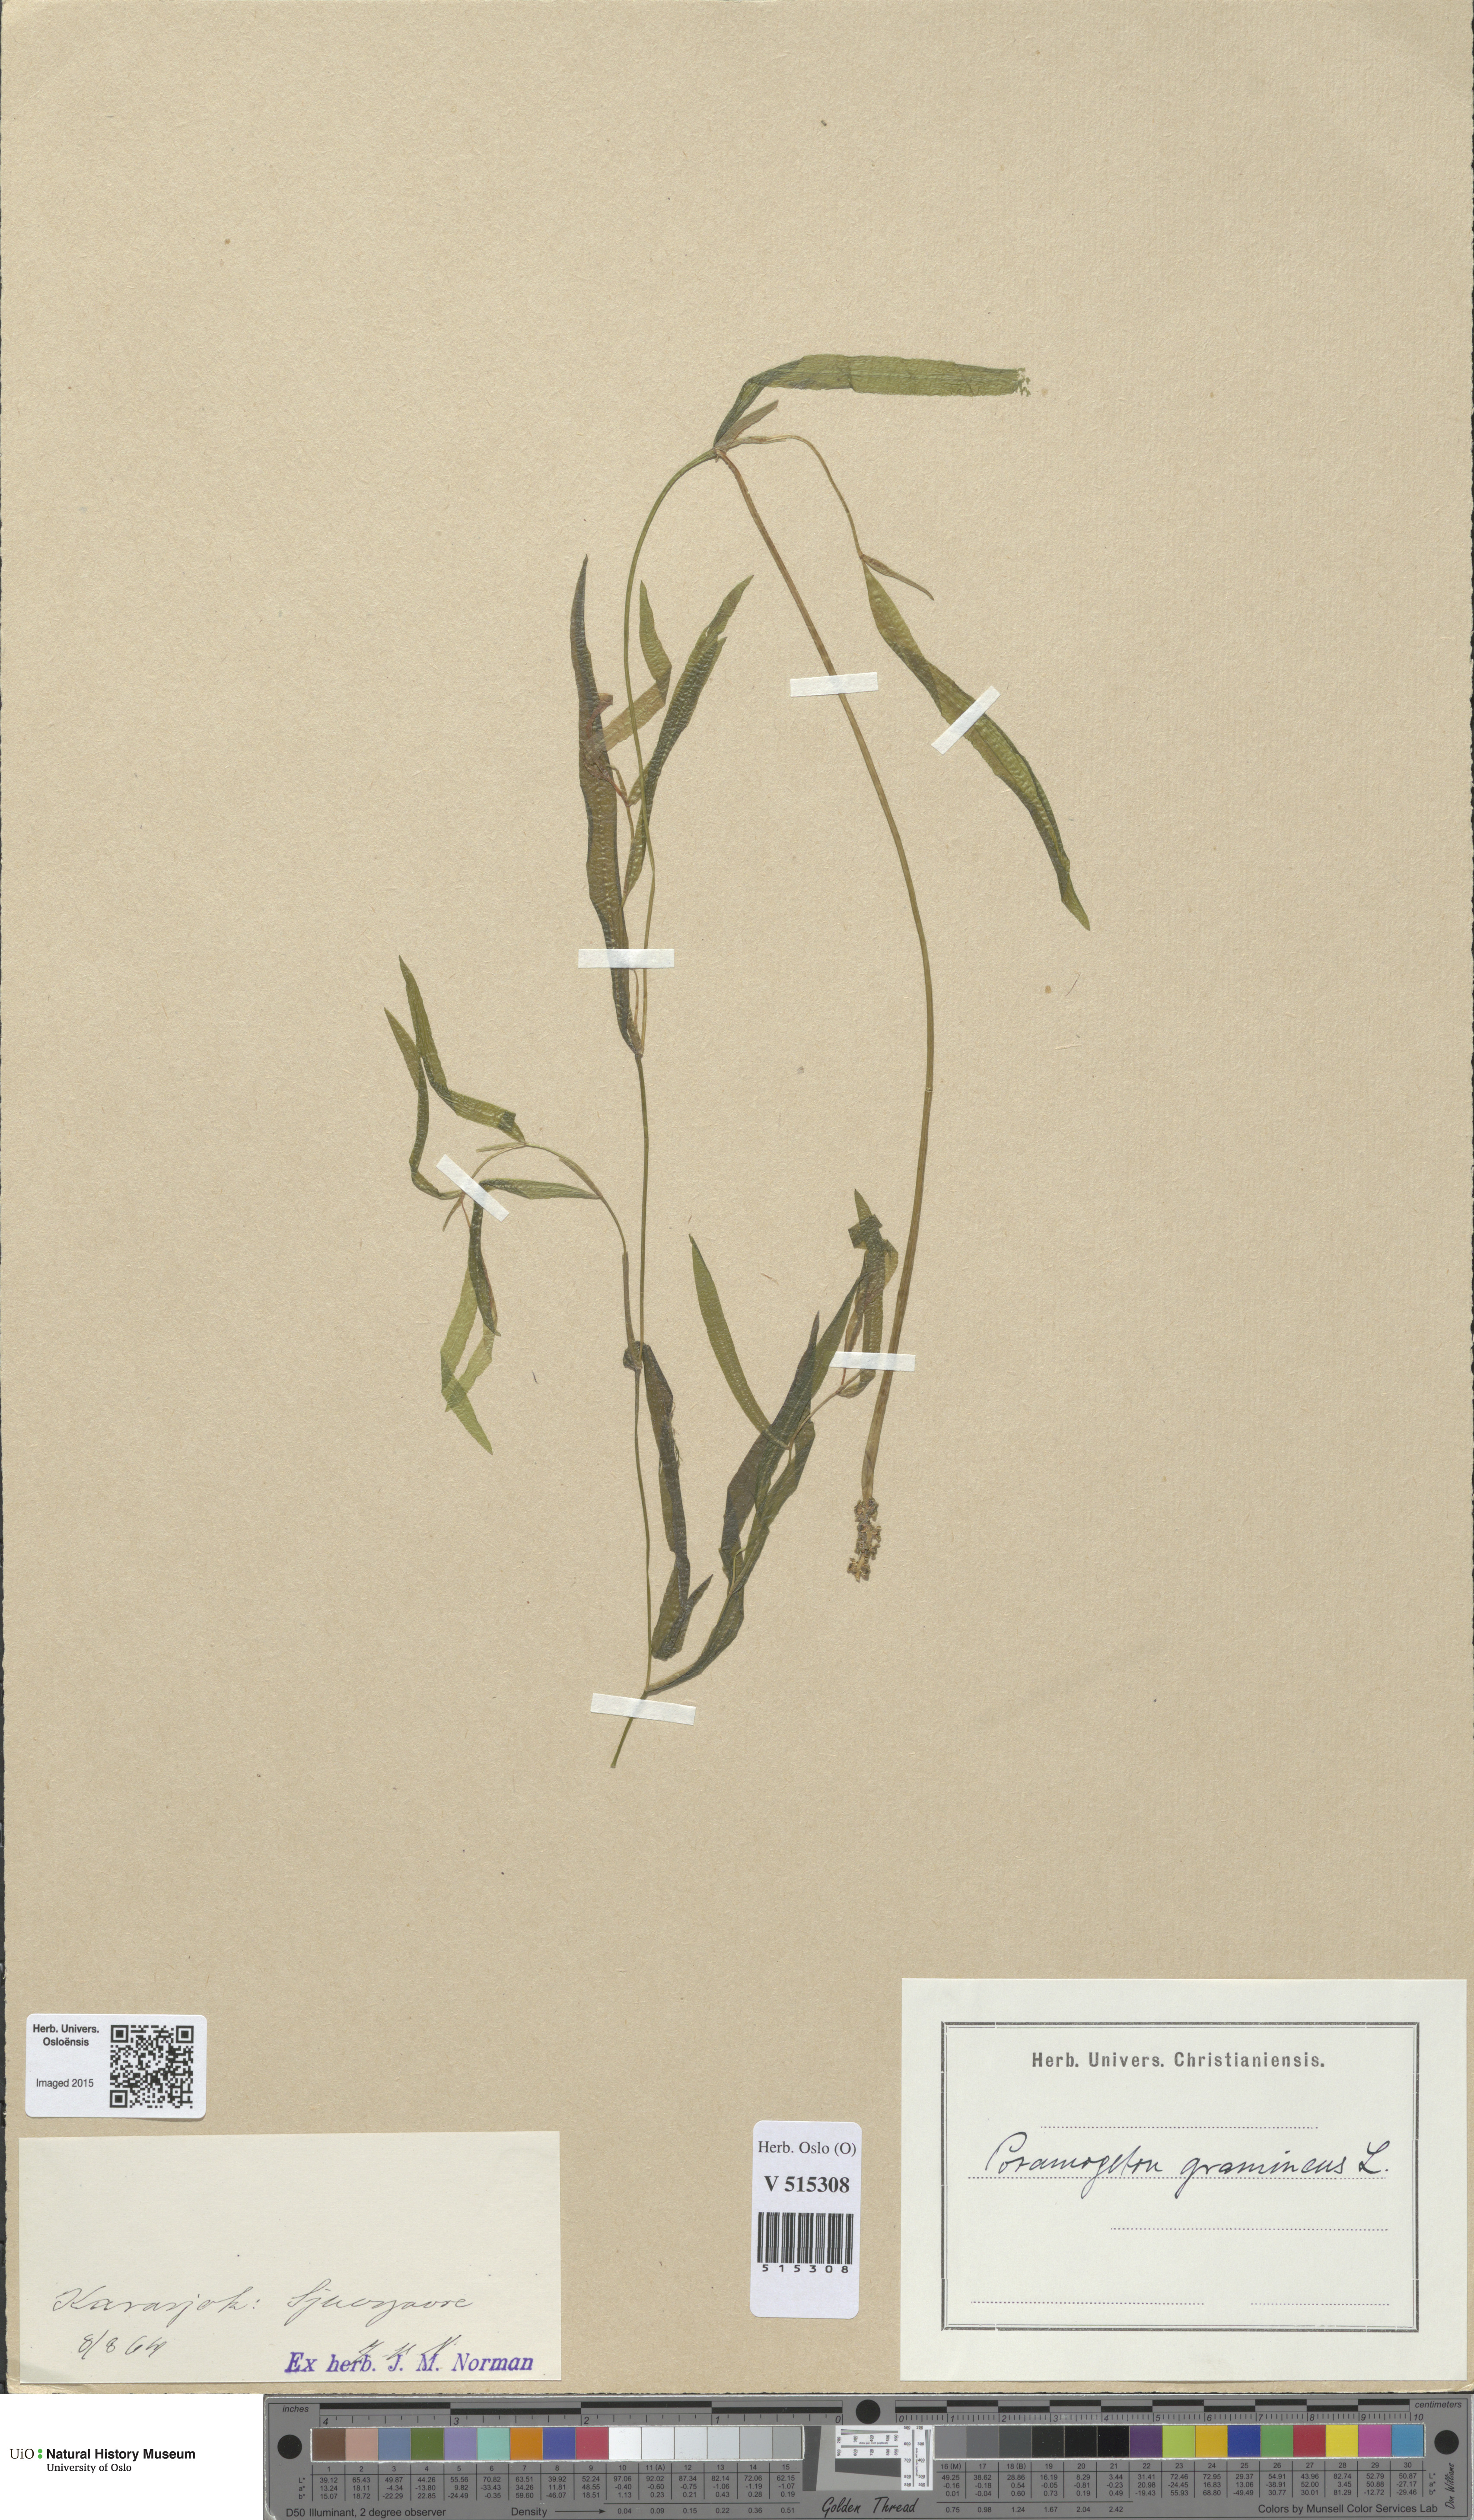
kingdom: Plantae
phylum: Tracheophyta
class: Liliopsida
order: Alismatales
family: Potamogetonaceae
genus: Potamogeton
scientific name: Potamogeton gramineus
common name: Various-leaved pondweed
